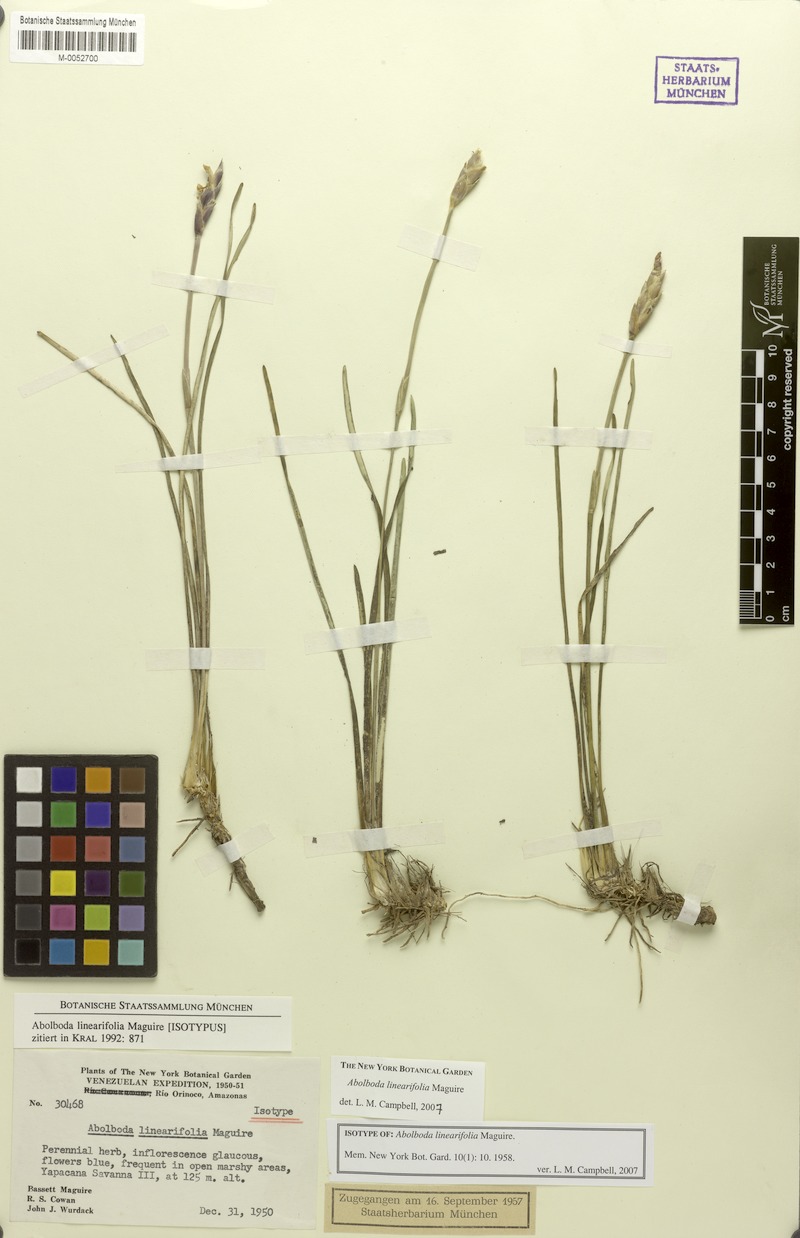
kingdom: Plantae
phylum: Tracheophyta
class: Liliopsida
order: Poales
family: Xyridaceae
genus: Abolboda
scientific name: Abolboda linearifolia
